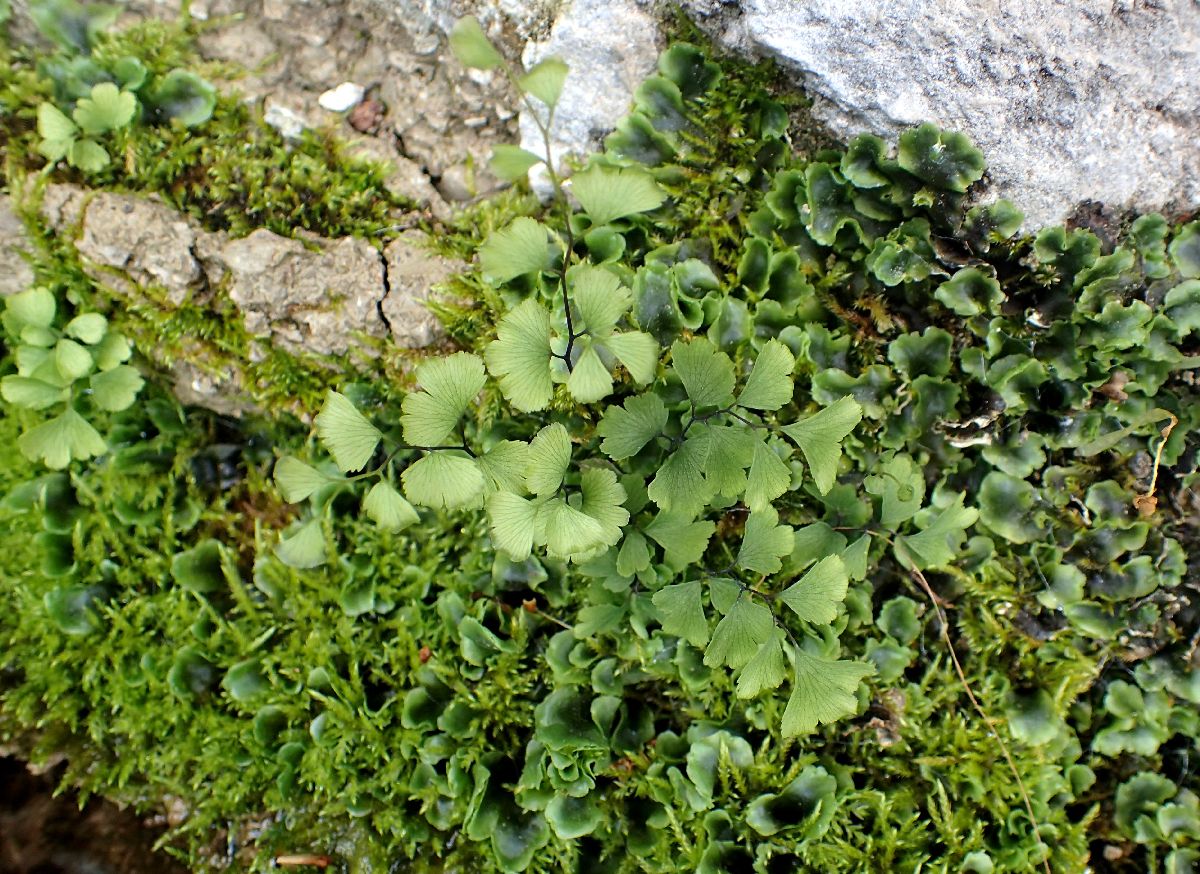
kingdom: Plantae
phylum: Tracheophyta
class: Polypodiopsida
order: Polypodiales
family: Pteridaceae
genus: Adiantum
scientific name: Adiantum capillus-veneris
